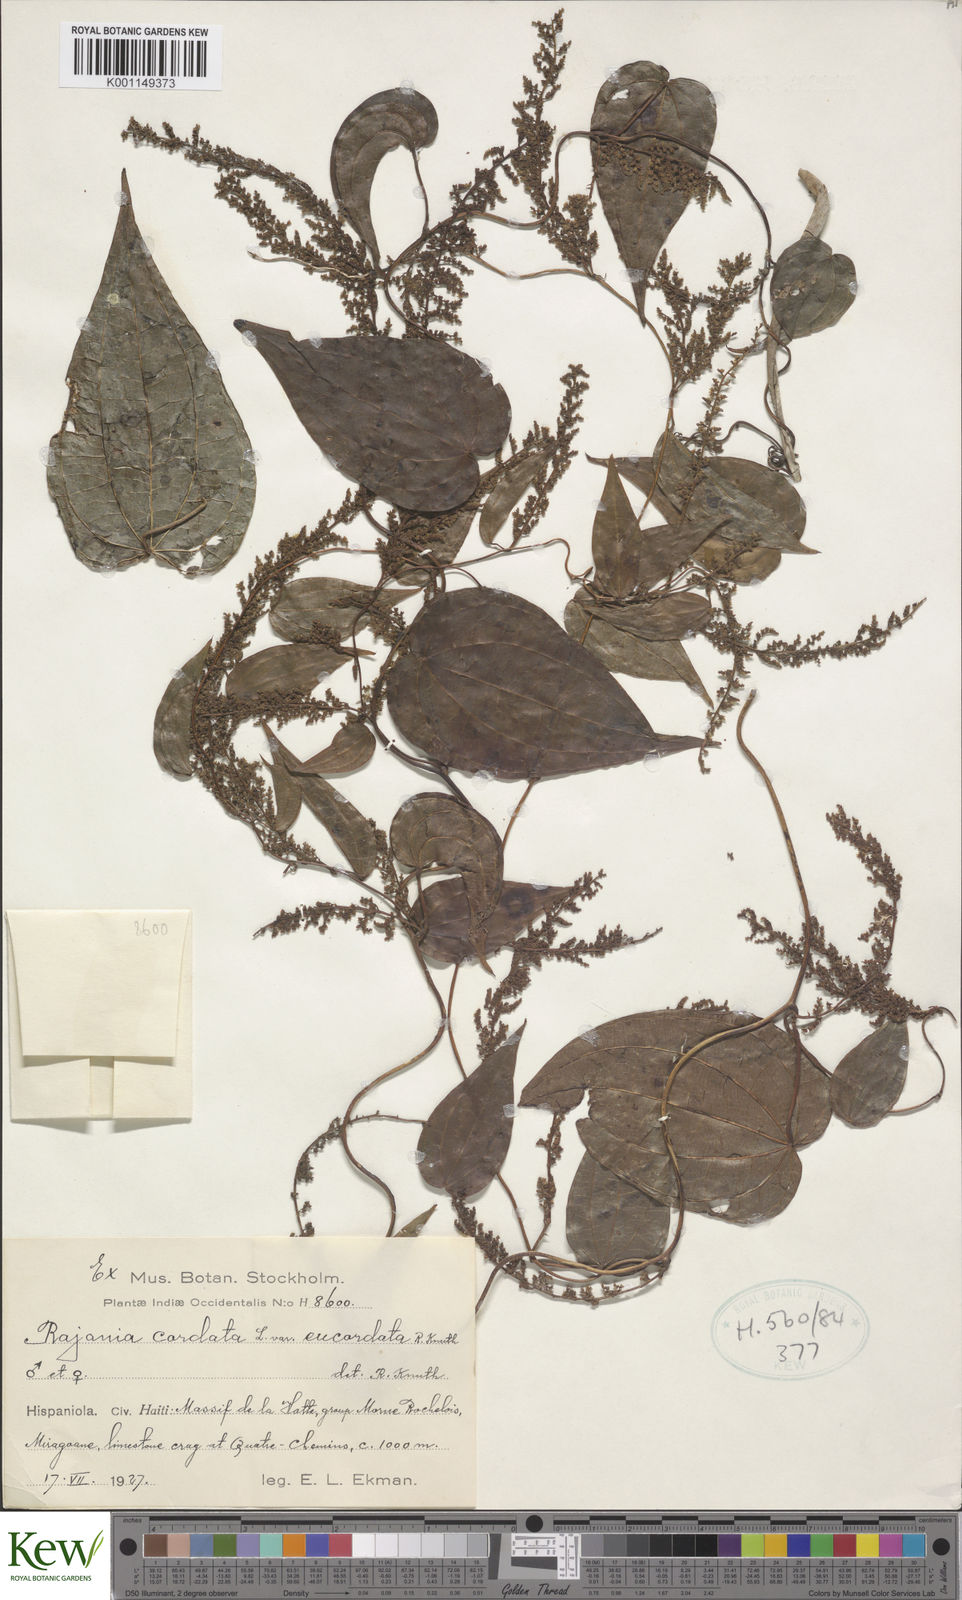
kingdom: Plantae
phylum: Tracheophyta
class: Liliopsida
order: Dioscoreales
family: Dioscoreaceae
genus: Dioscorea
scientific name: Dioscorea
